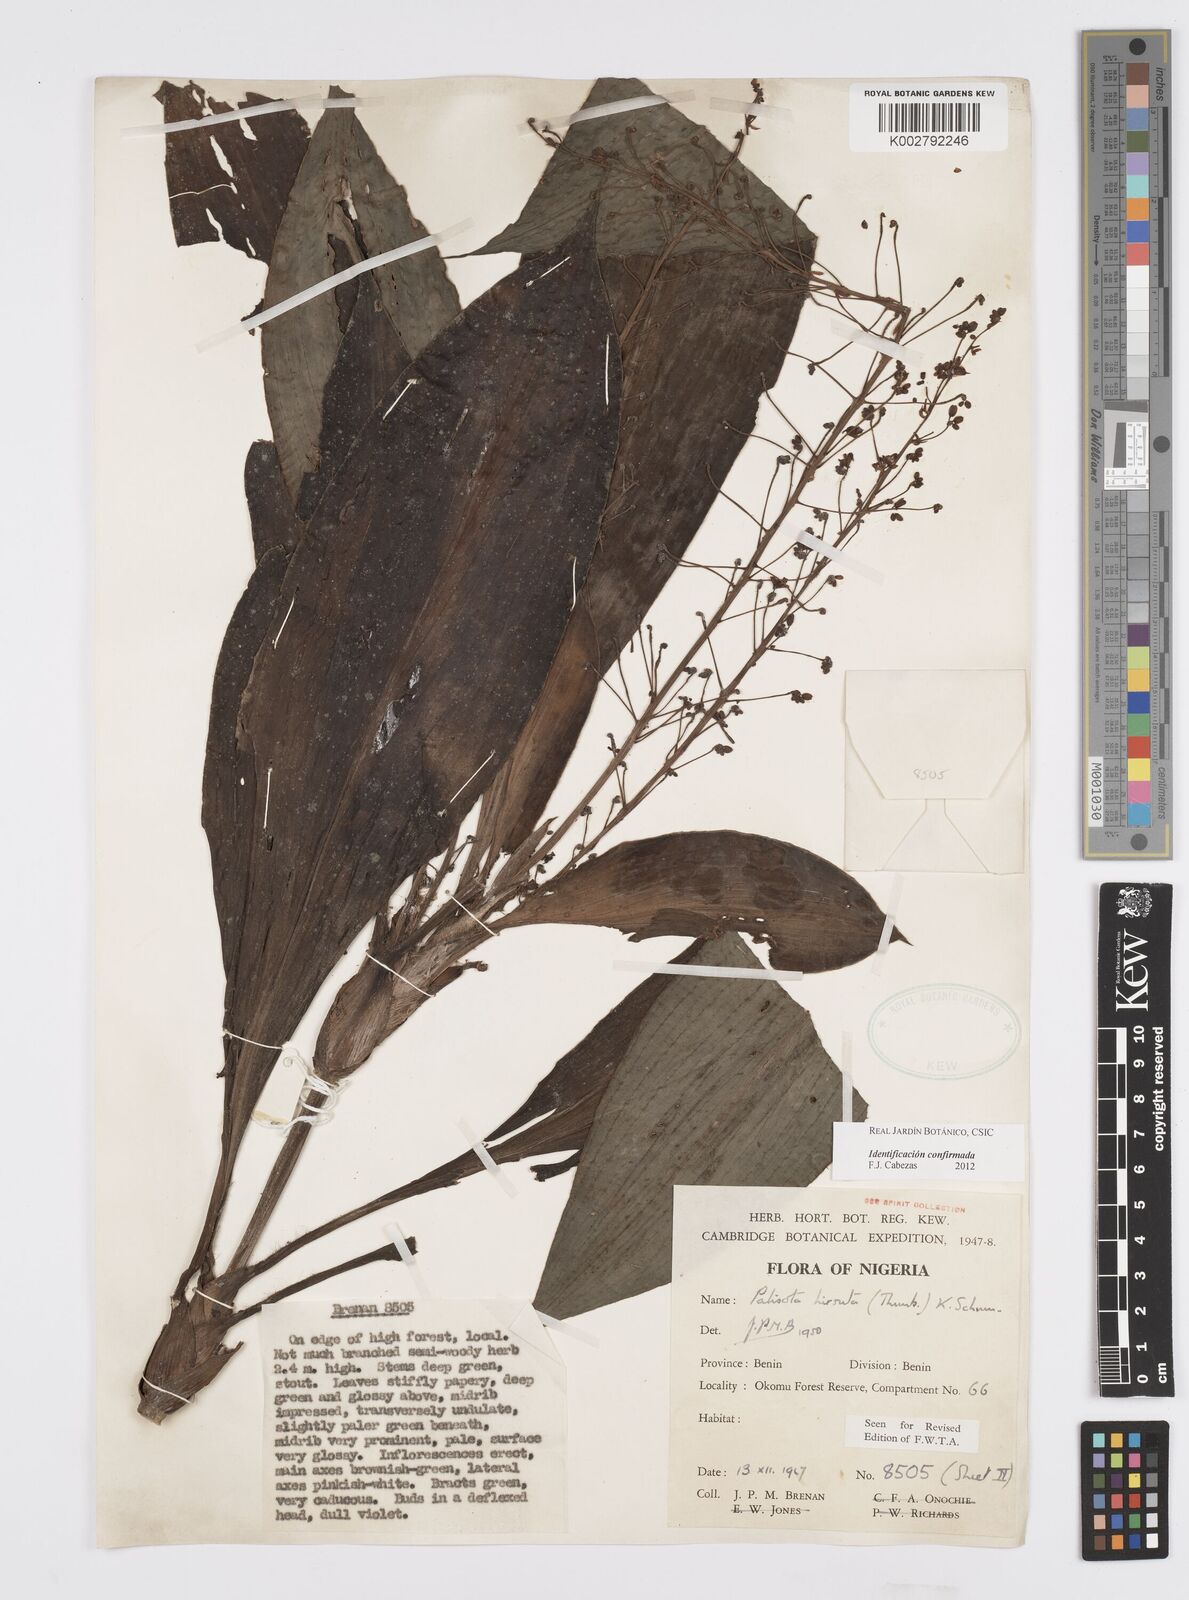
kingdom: Plantae
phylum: Tracheophyta
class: Liliopsida
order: Commelinales
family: Commelinaceae
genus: Palisota
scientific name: Palisota hirsuta
